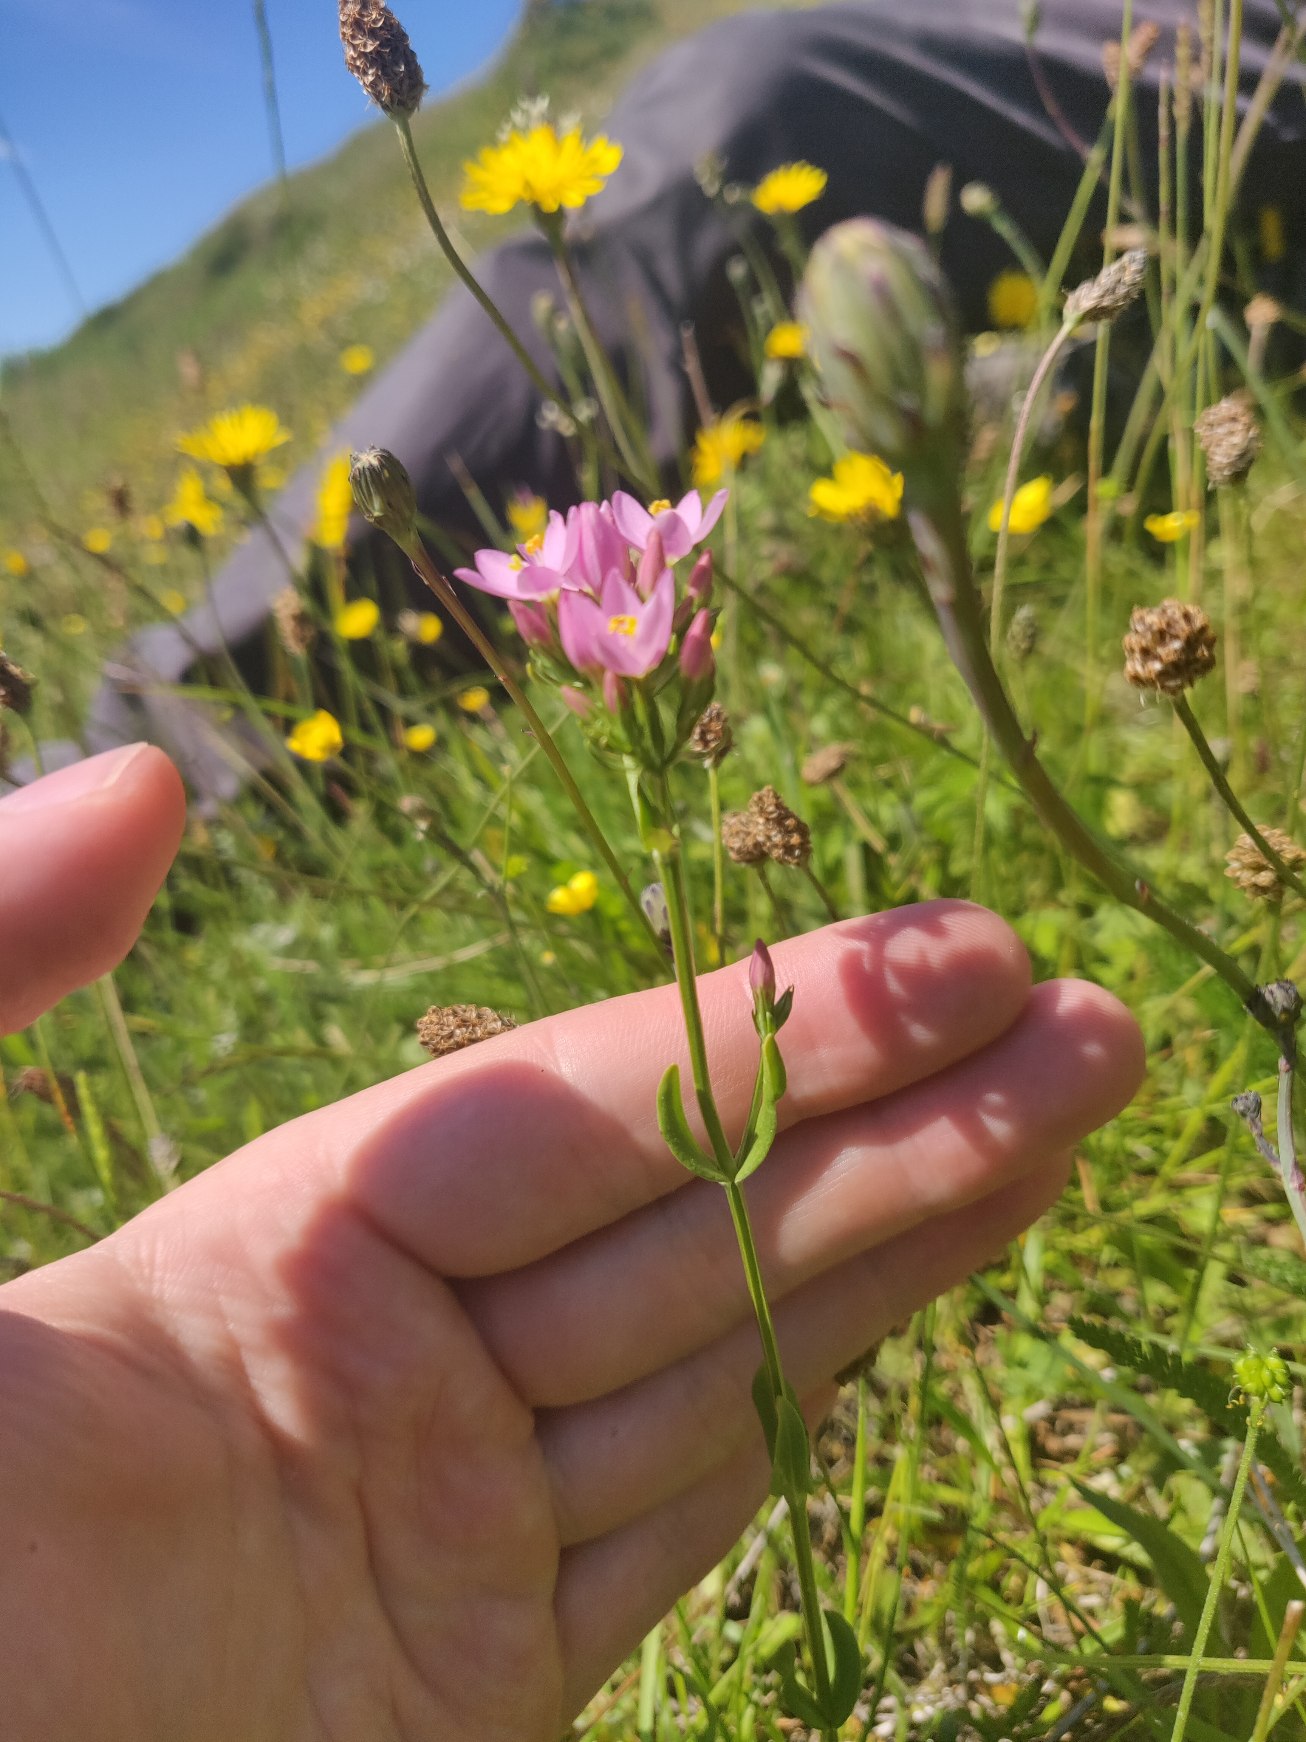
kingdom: Plantae
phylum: Tracheophyta
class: Magnoliopsida
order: Gentianales
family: Gentianaceae
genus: Centaurium
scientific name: Centaurium erythraea
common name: Mark-tusindgylden
